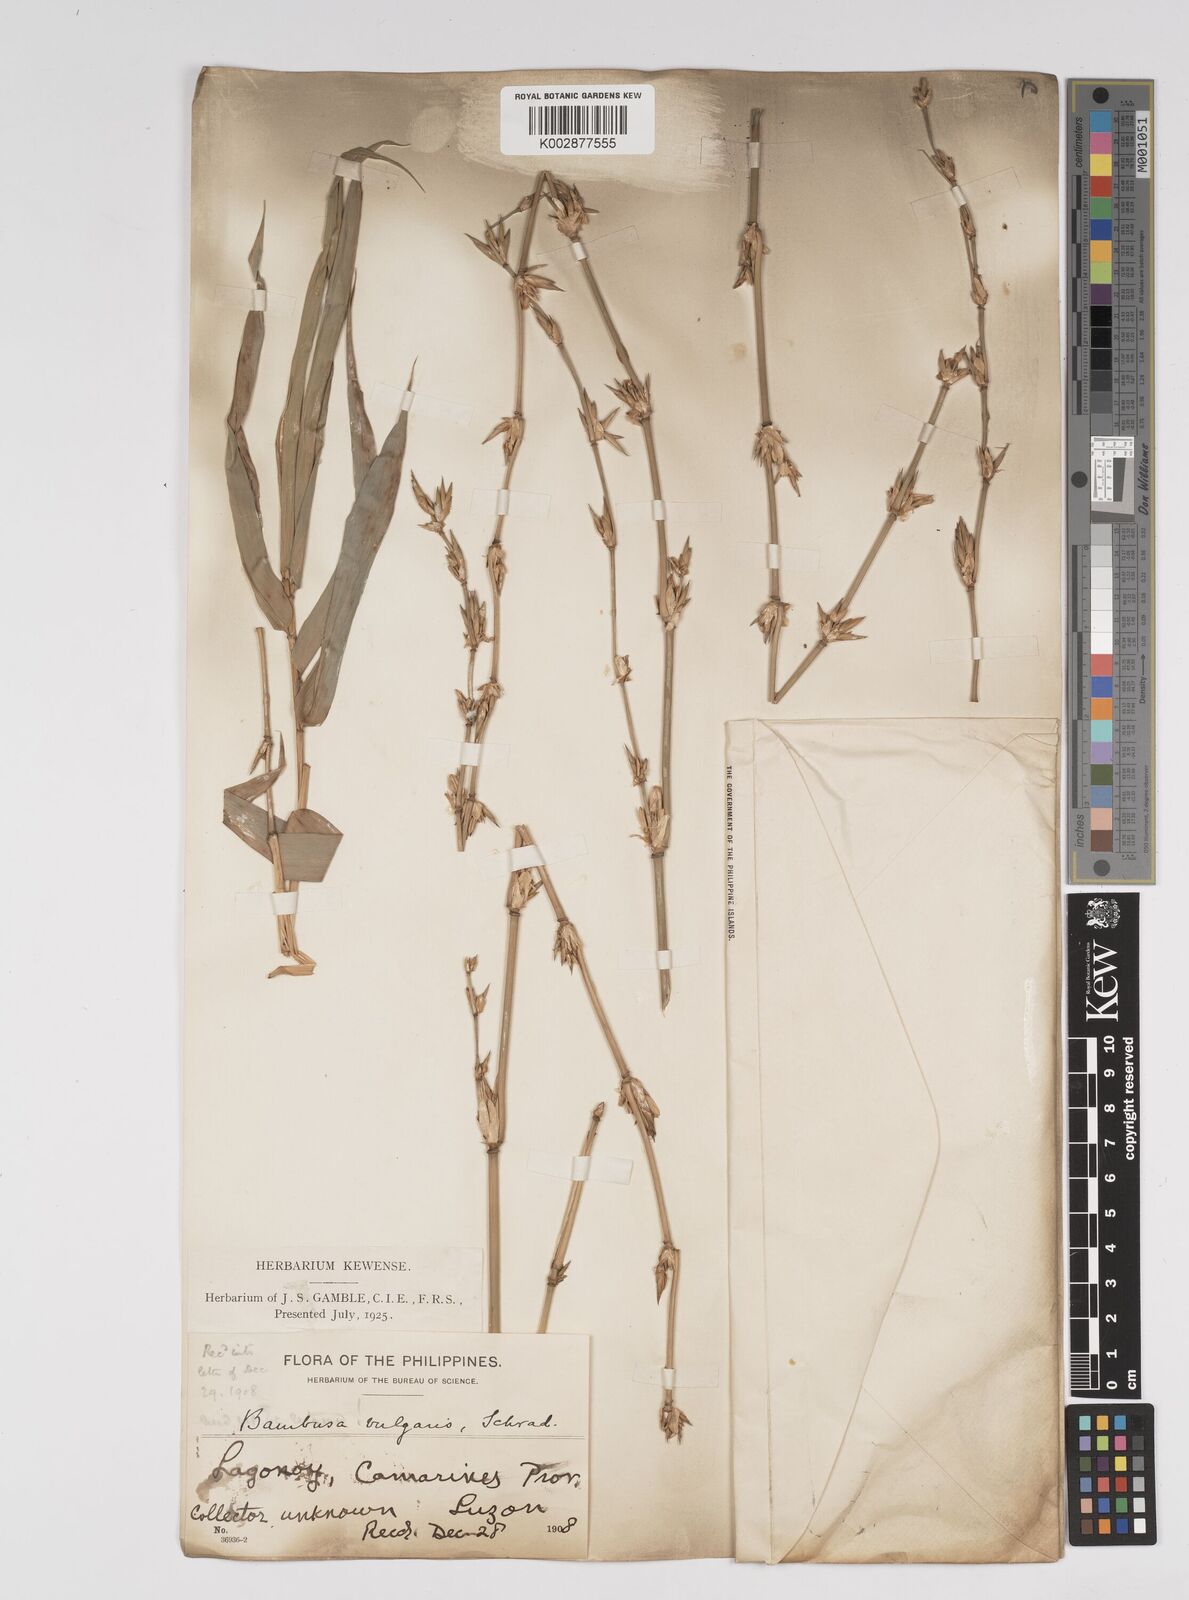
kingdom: Plantae
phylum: Tracheophyta
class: Liliopsida
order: Poales
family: Poaceae
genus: Bambusa
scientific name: Bambusa vulgaris
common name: Common bamboo
